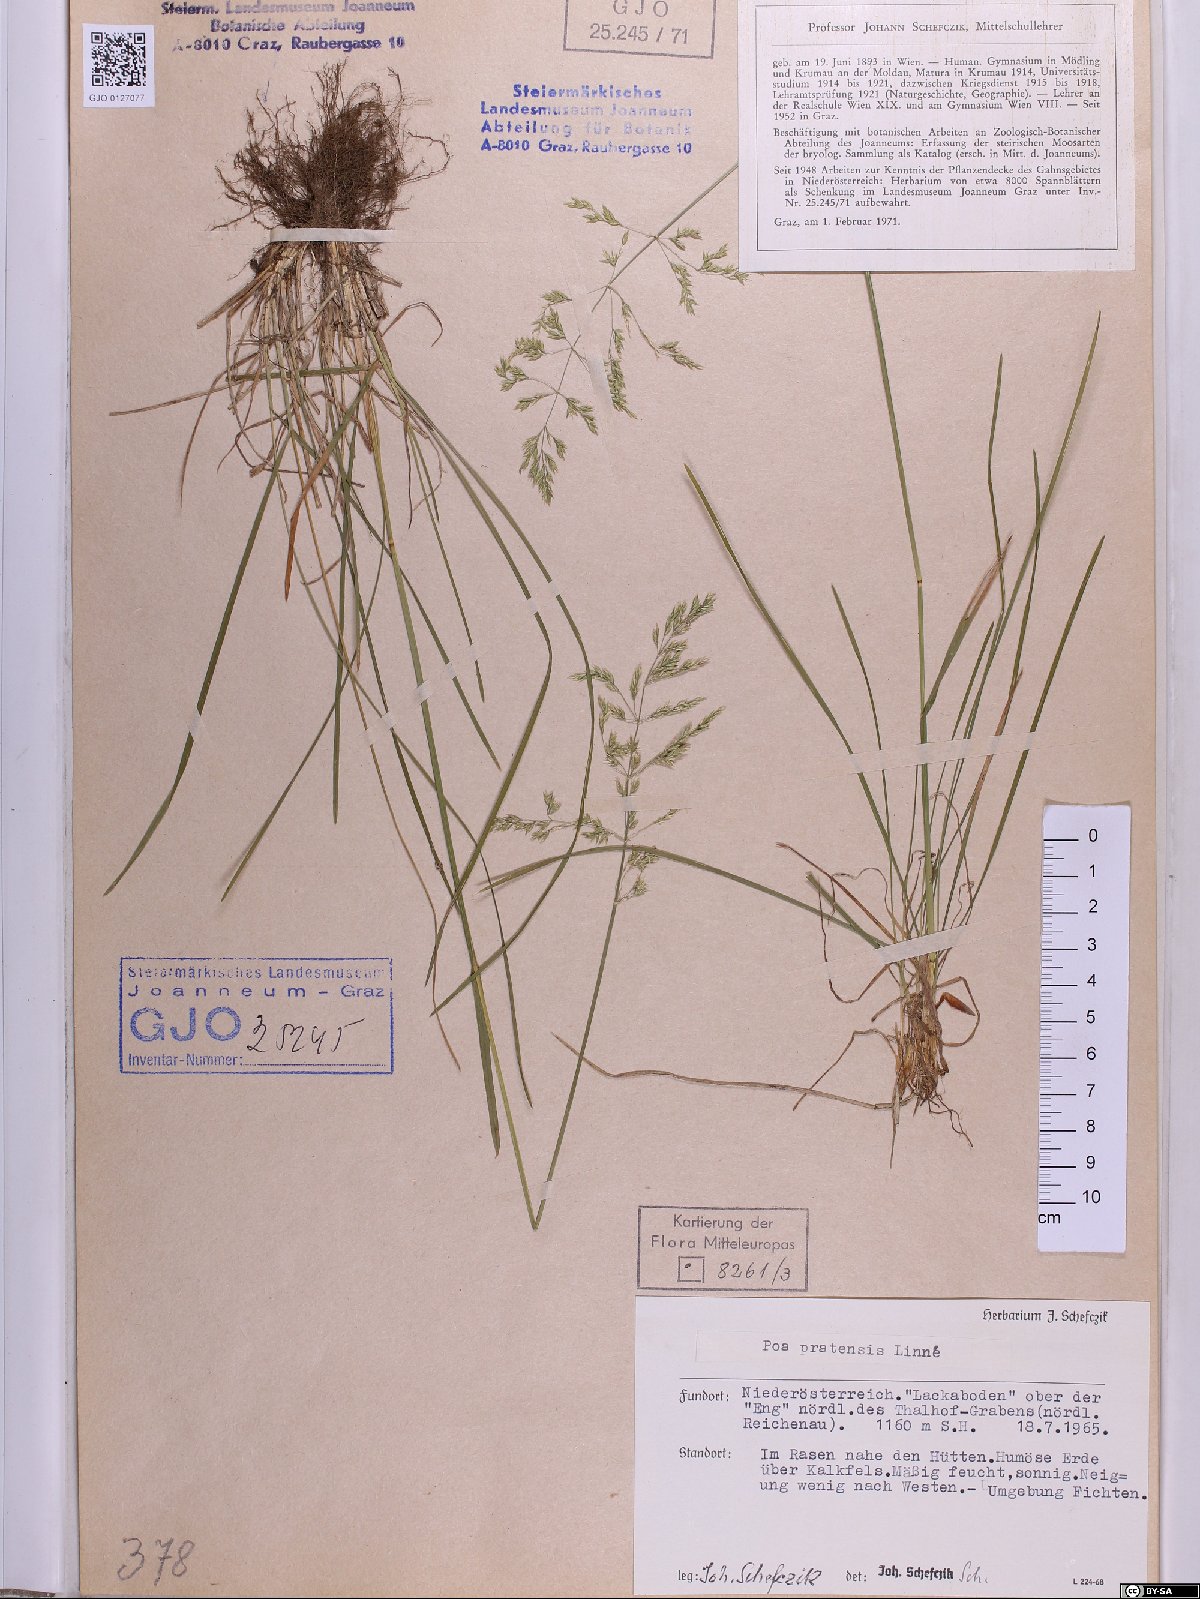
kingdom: Plantae
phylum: Tracheophyta
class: Liliopsida
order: Poales
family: Poaceae
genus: Poa
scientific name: Poa pratensis
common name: Kentucky bluegrass
